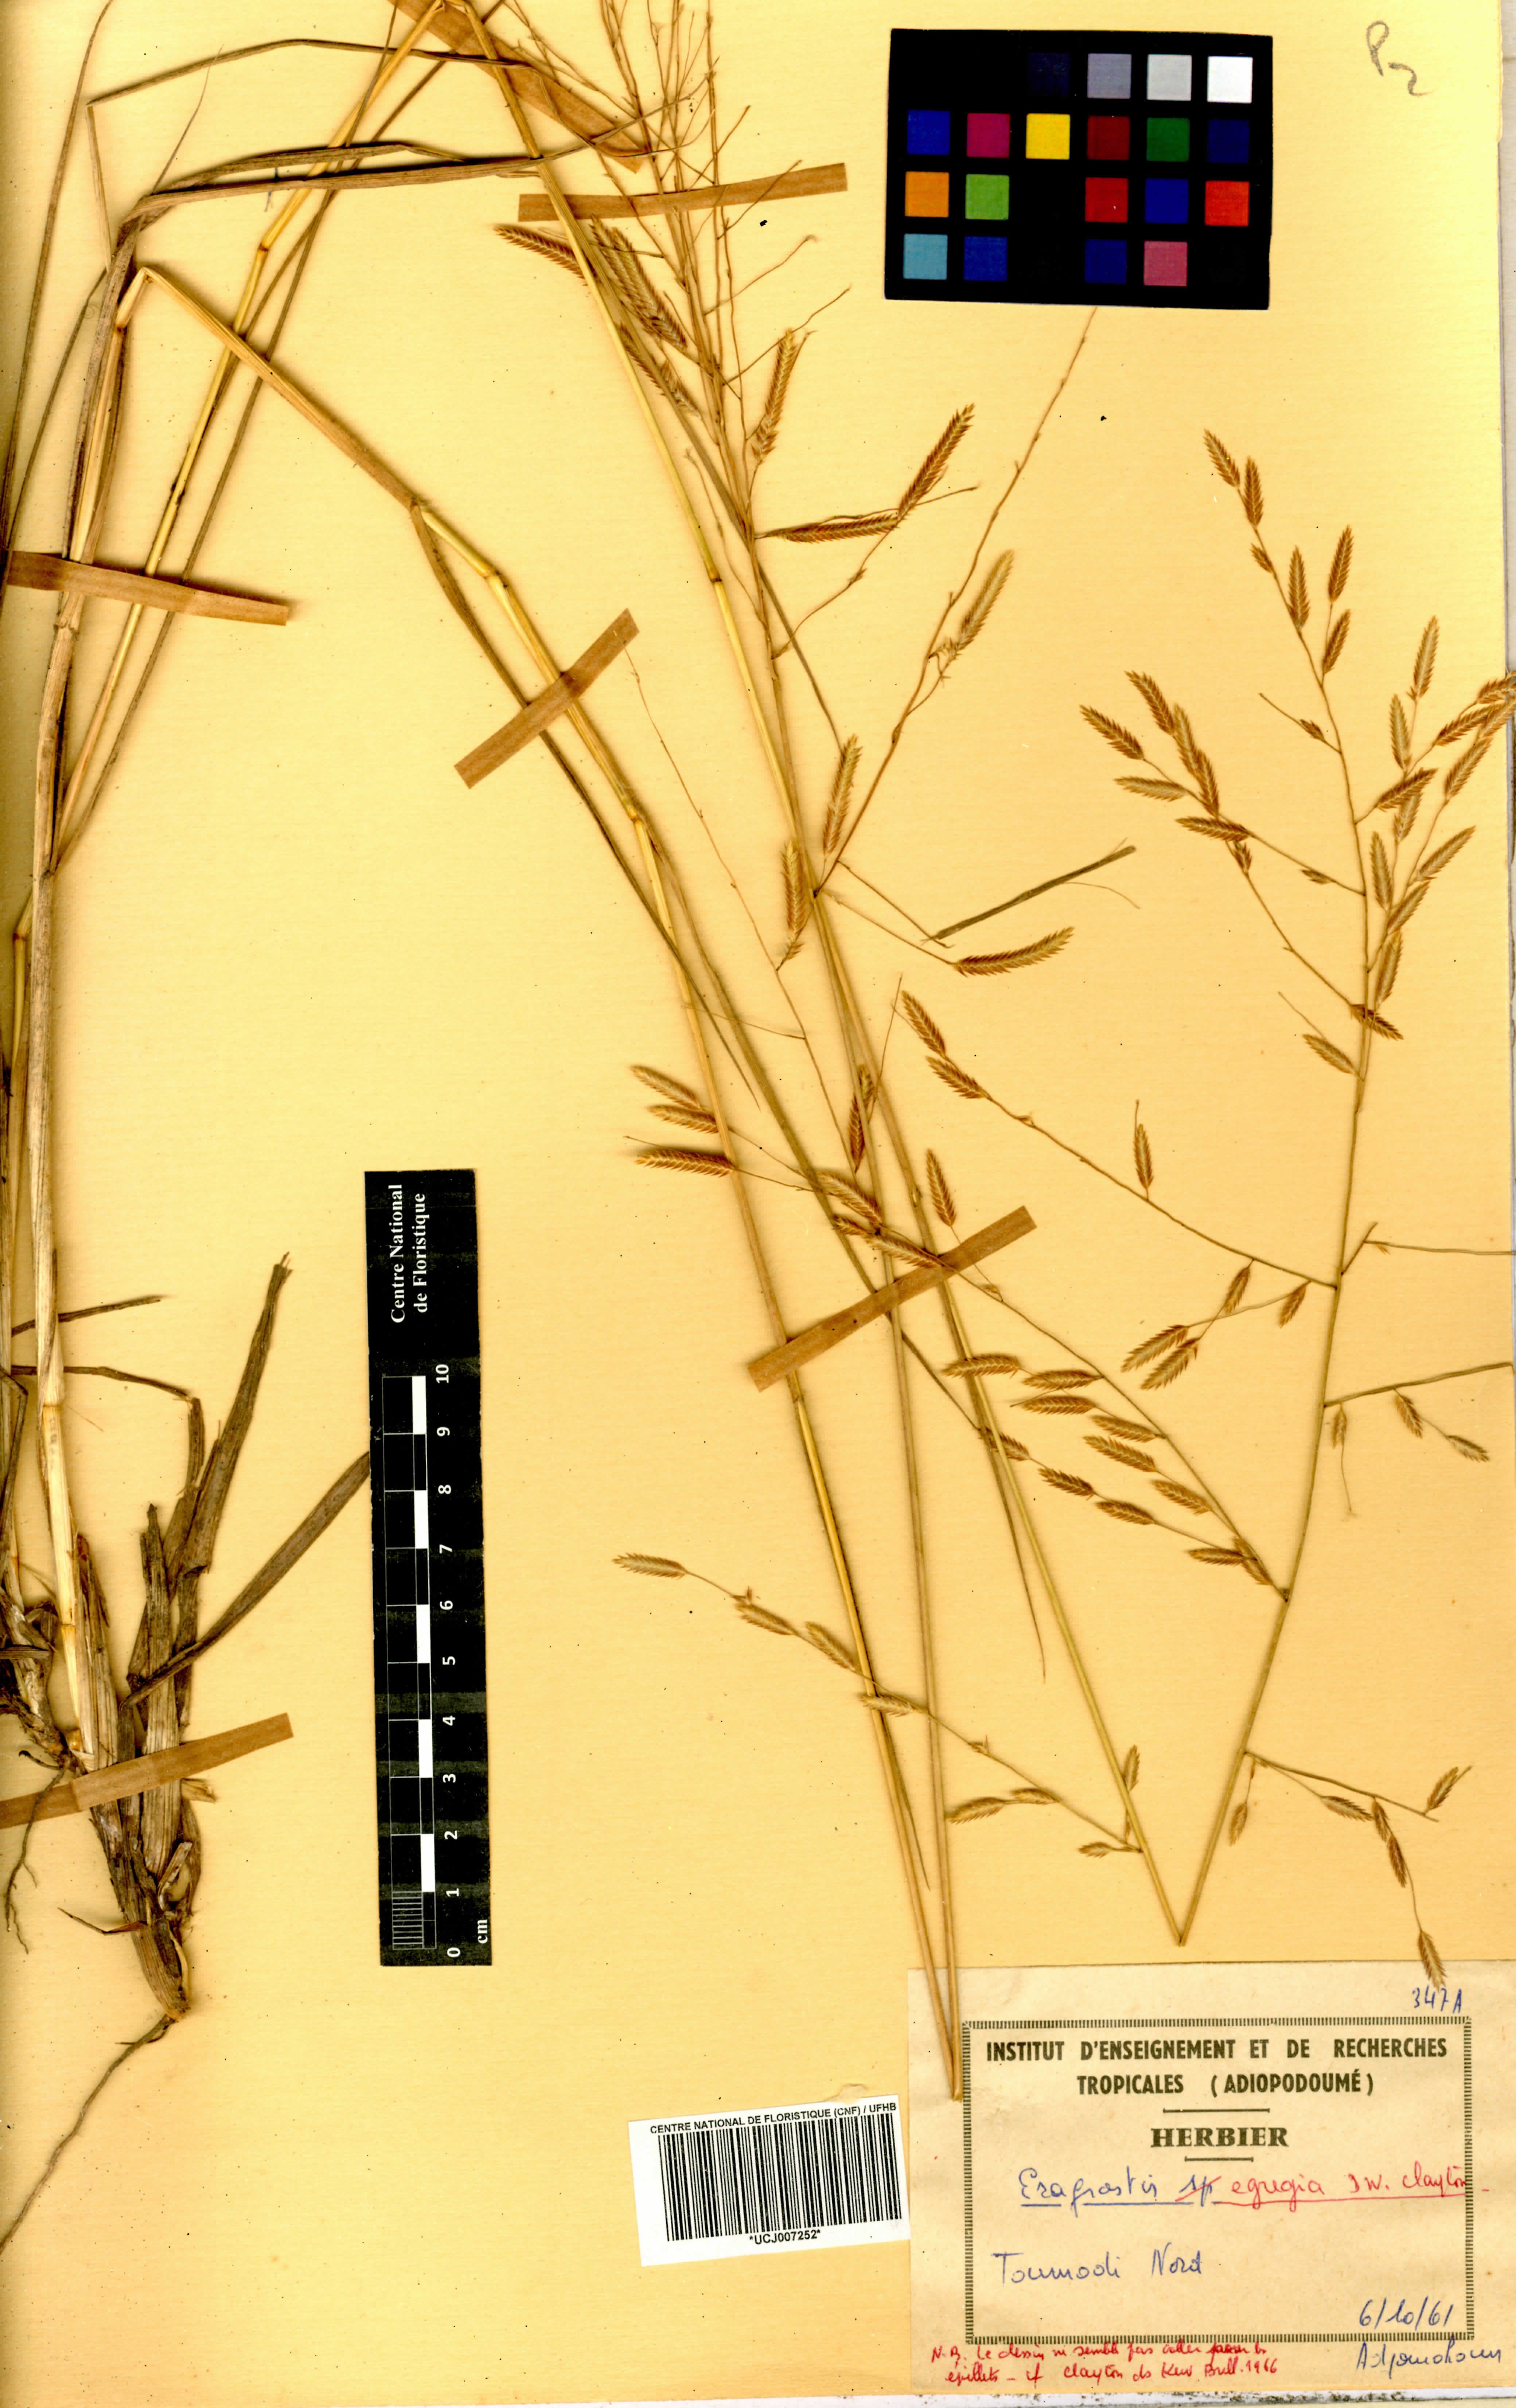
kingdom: Plantae
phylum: Tracheophyta
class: Liliopsida
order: Poales
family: Poaceae
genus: Eragrostis
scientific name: Eragrostis egregia
